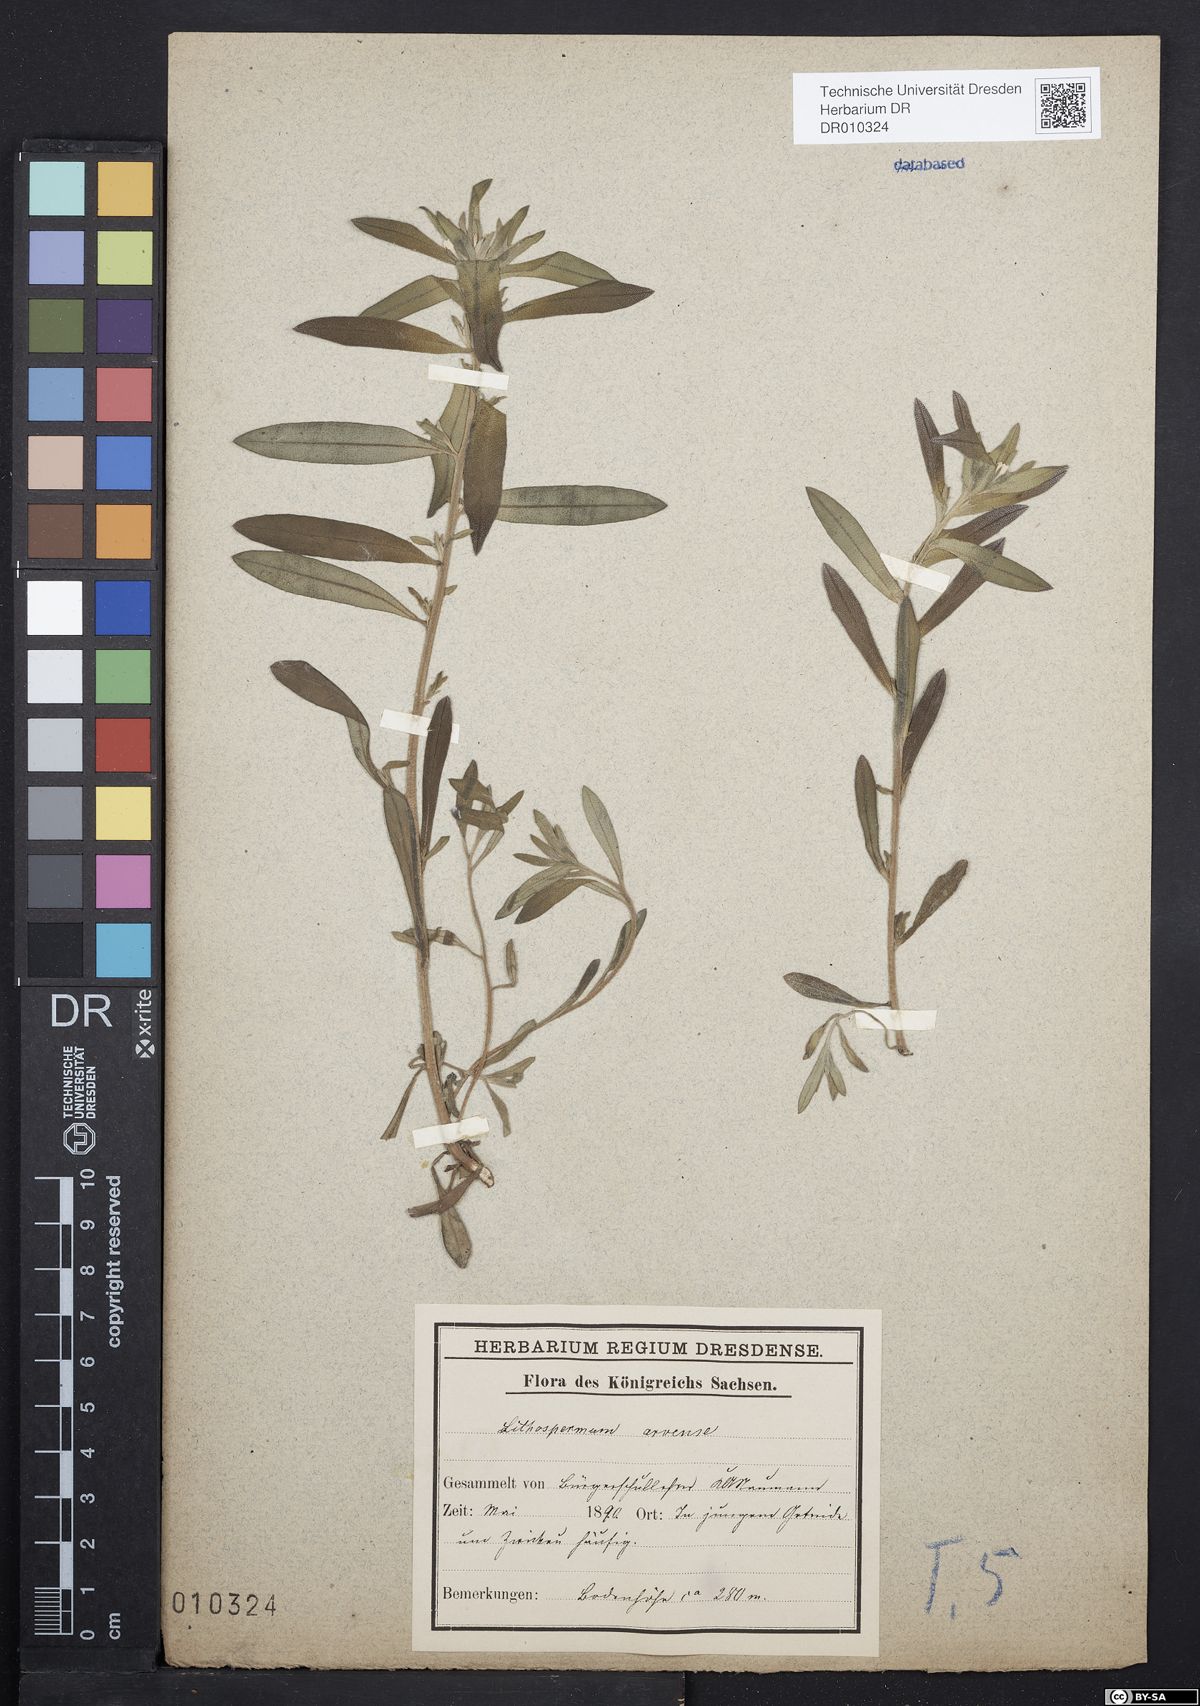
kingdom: Plantae
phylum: Tracheophyta
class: Magnoliopsida
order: Boraginales
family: Boraginaceae
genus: Buglossoides
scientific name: Buglossoides arvensis
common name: Corn gromwell
